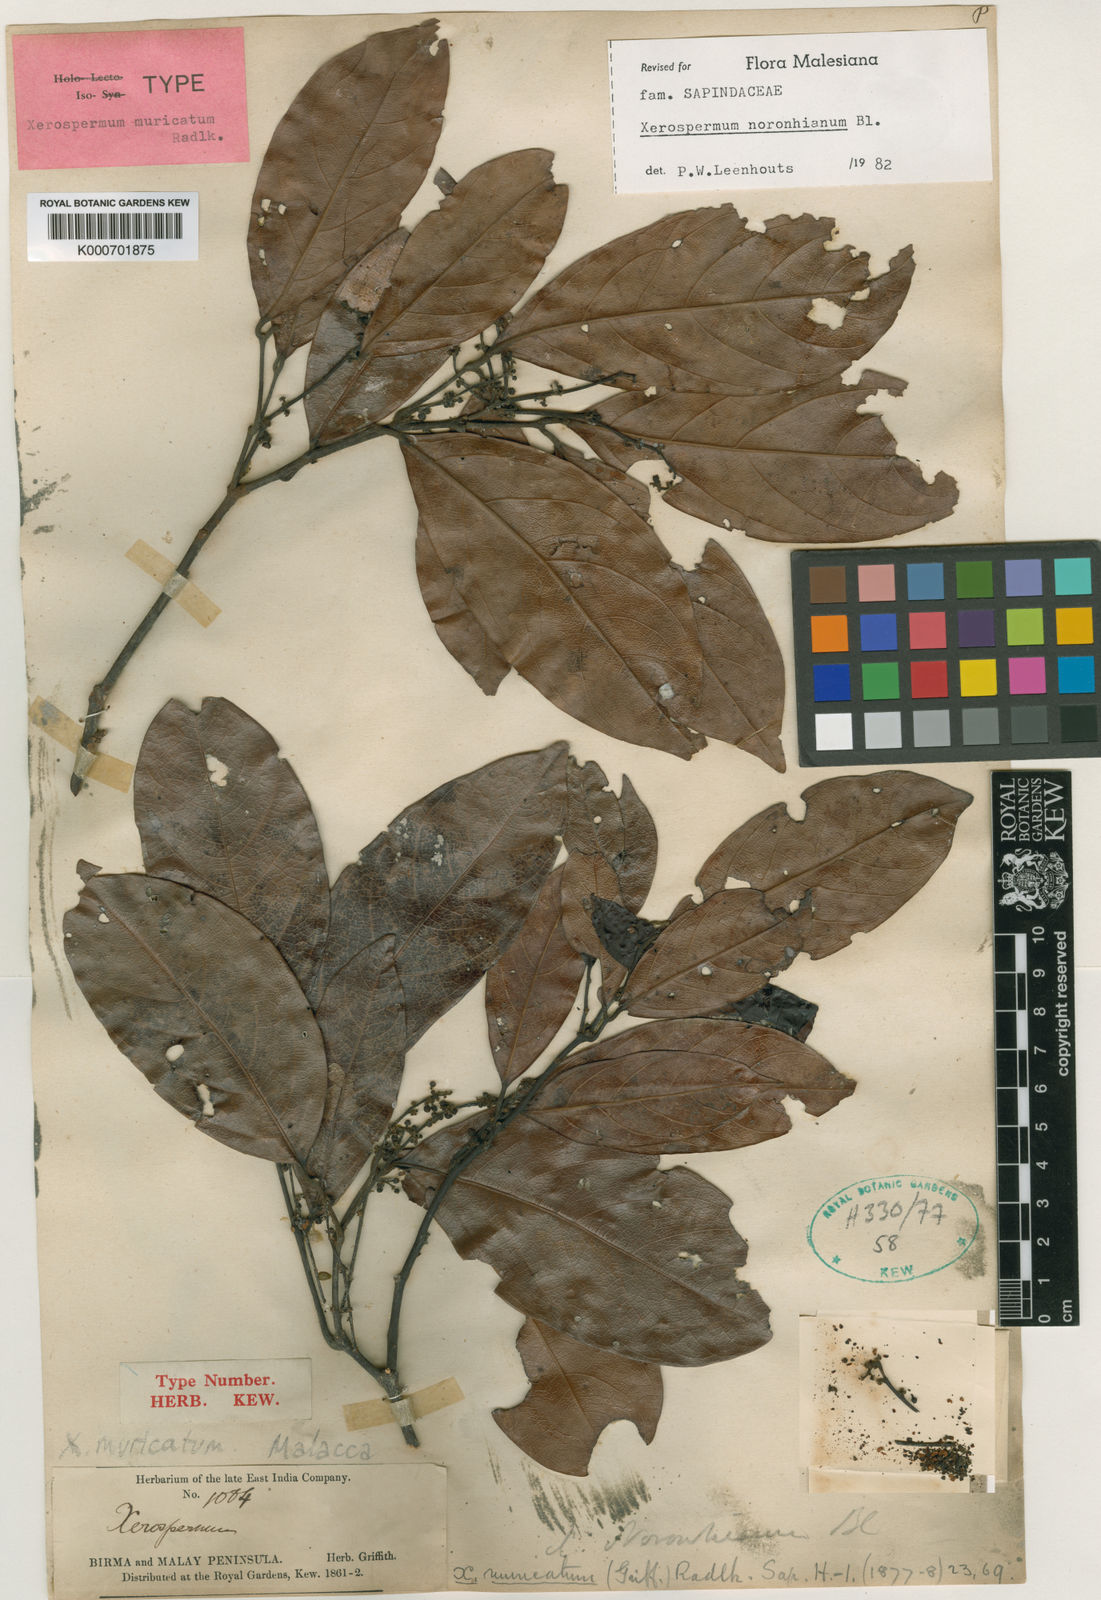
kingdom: Plantae
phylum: Tracheophyta
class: Magnoliopsida
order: Sapindales
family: Sapindaceae
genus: Xerospermum
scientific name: Xerospermum noronhianum
